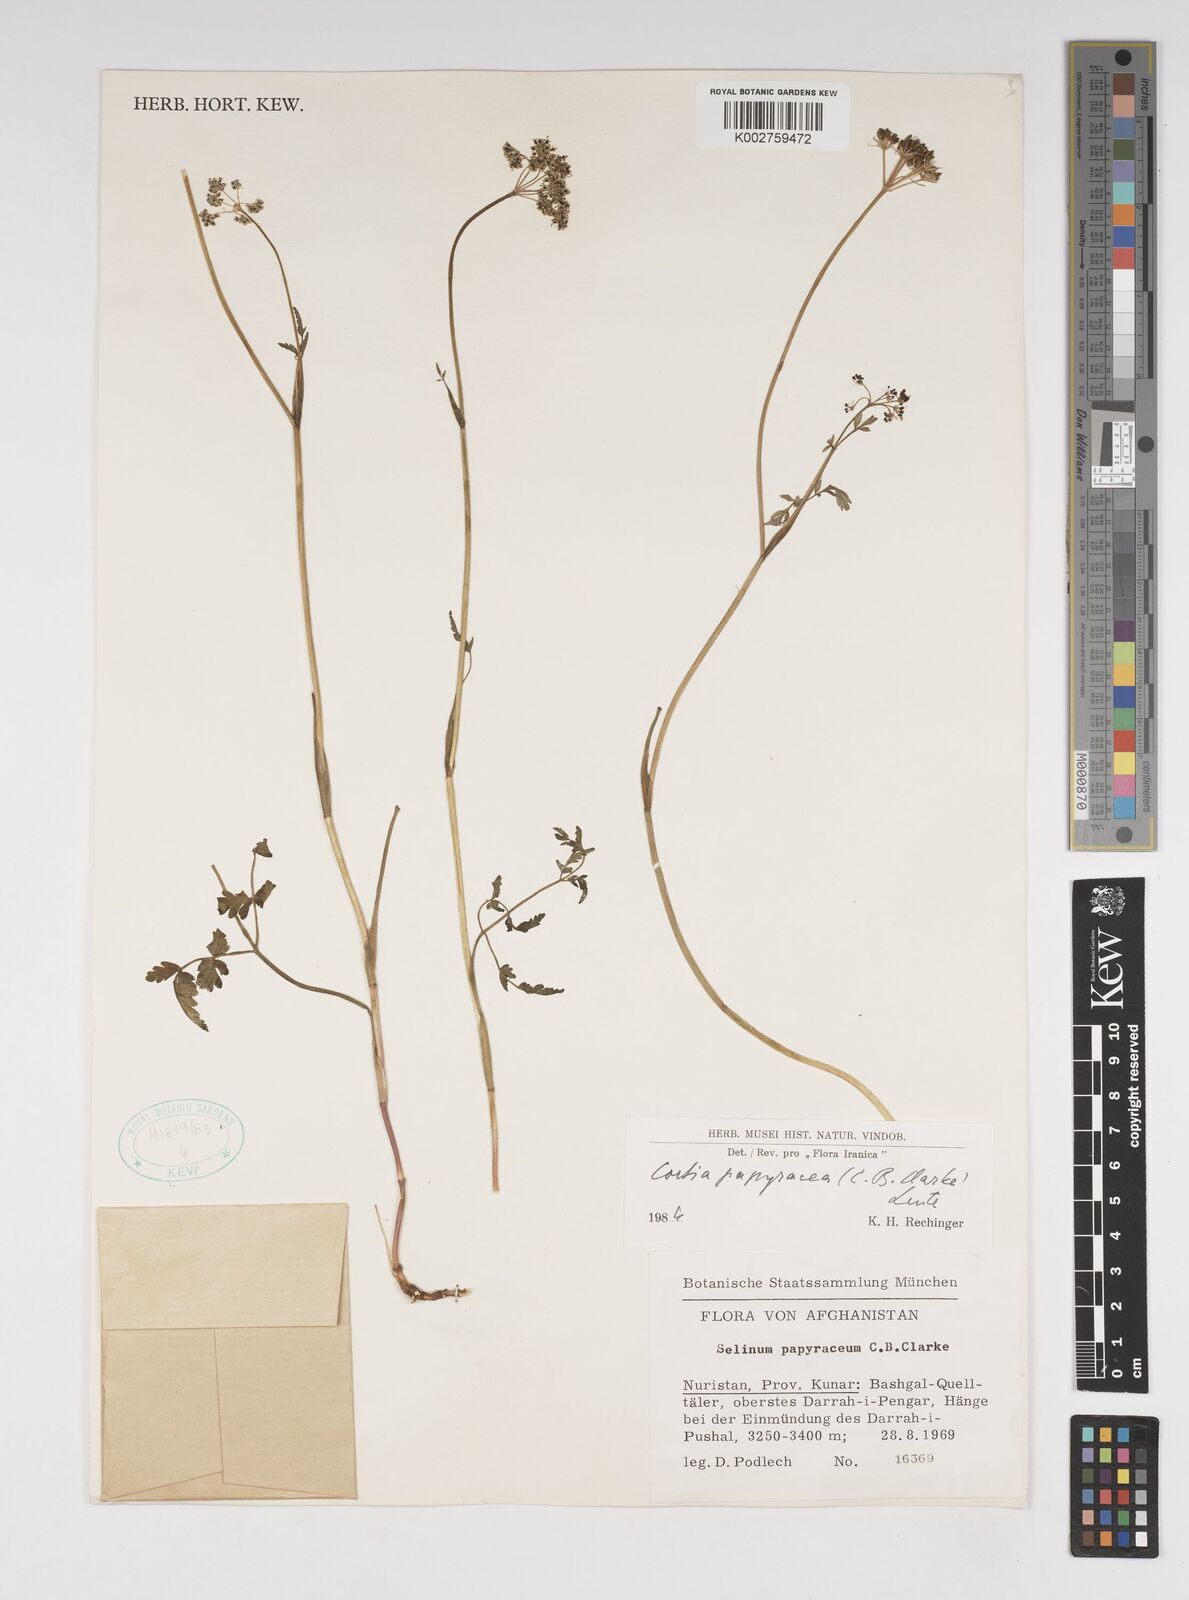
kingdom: Plantae
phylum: Tracheophyta
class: Magnoliopsida
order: Apiales
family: Apiaceae
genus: Conioselinum
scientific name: Conioselinum tataricum
